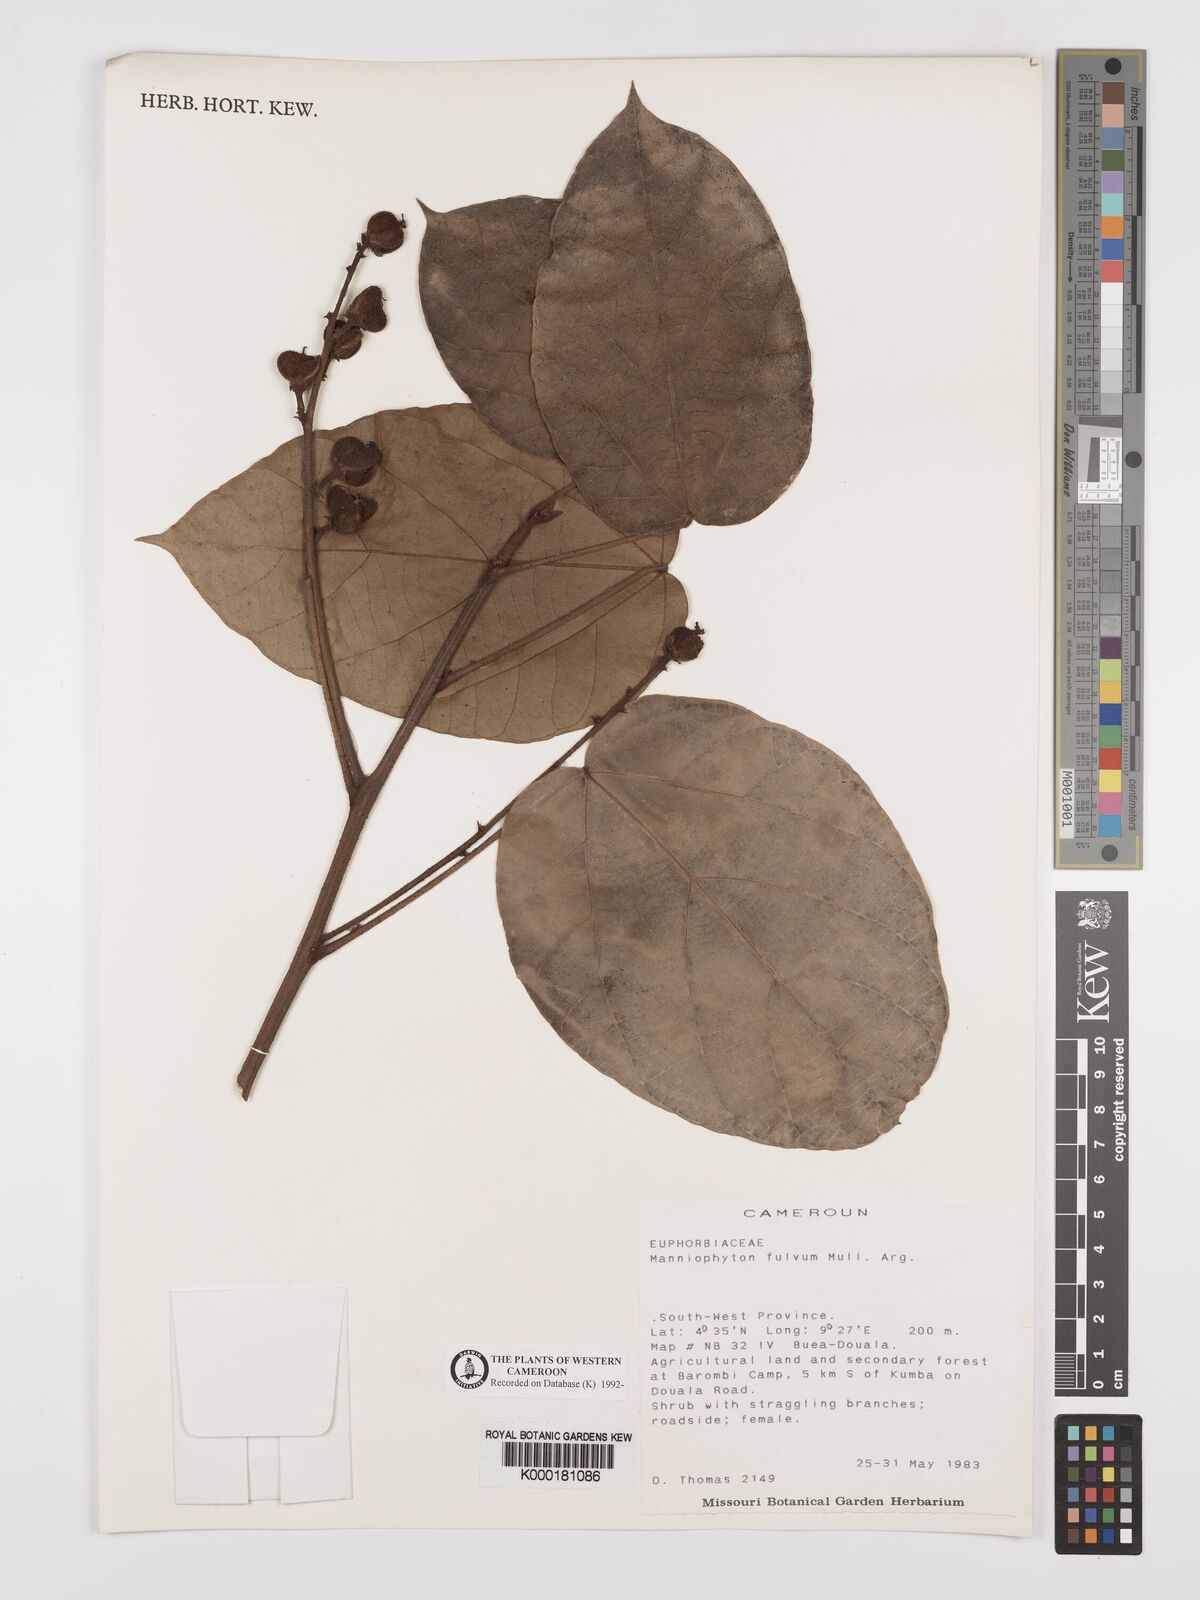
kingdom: Plantae
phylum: Tracheophyta
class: Magnoliopsida
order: Malpighiales
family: Euphorbiaceae
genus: Manniophyton
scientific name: Manniophyton
